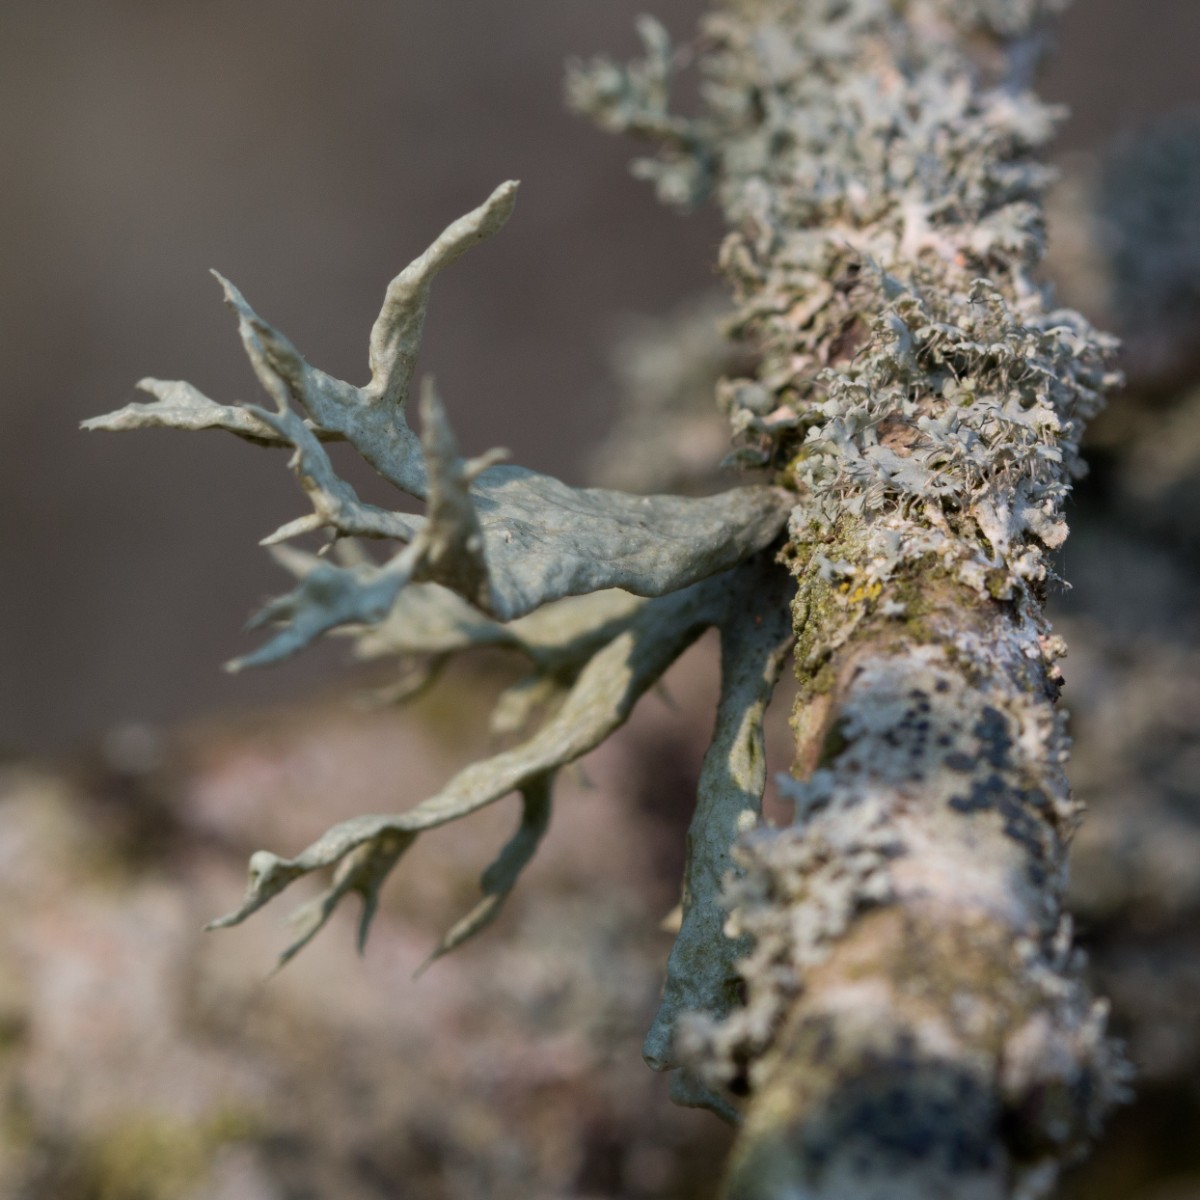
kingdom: Fungi
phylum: Ascomycota
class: Lecanoromycetes
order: Lecanorales
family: Parmeliaceae
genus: Evernia
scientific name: Evernia prunastri
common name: almindelig slåenlav
